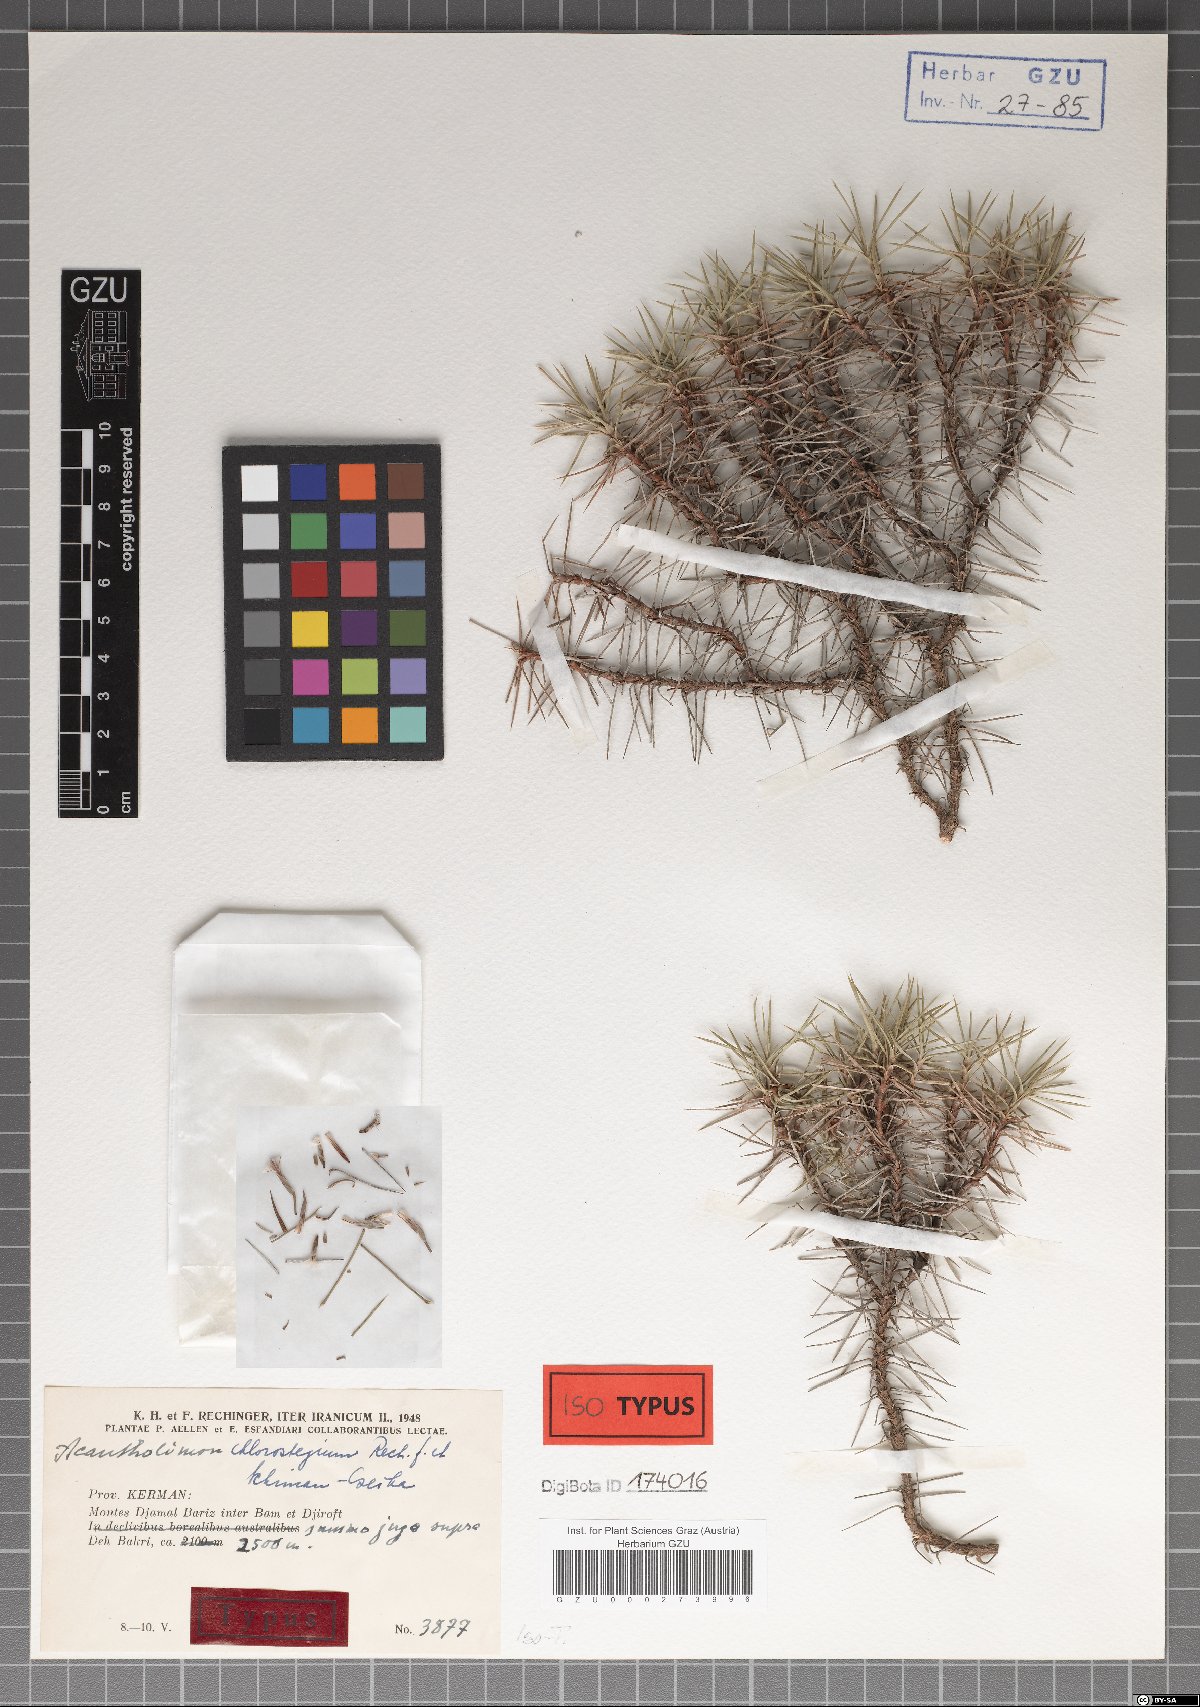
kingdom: Plantae
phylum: Tracheophyta
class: Magnoliopsida
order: Caryophyllales
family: Plumbaginaceae
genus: Acantholimon
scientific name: Acantholimon chlorostegium
